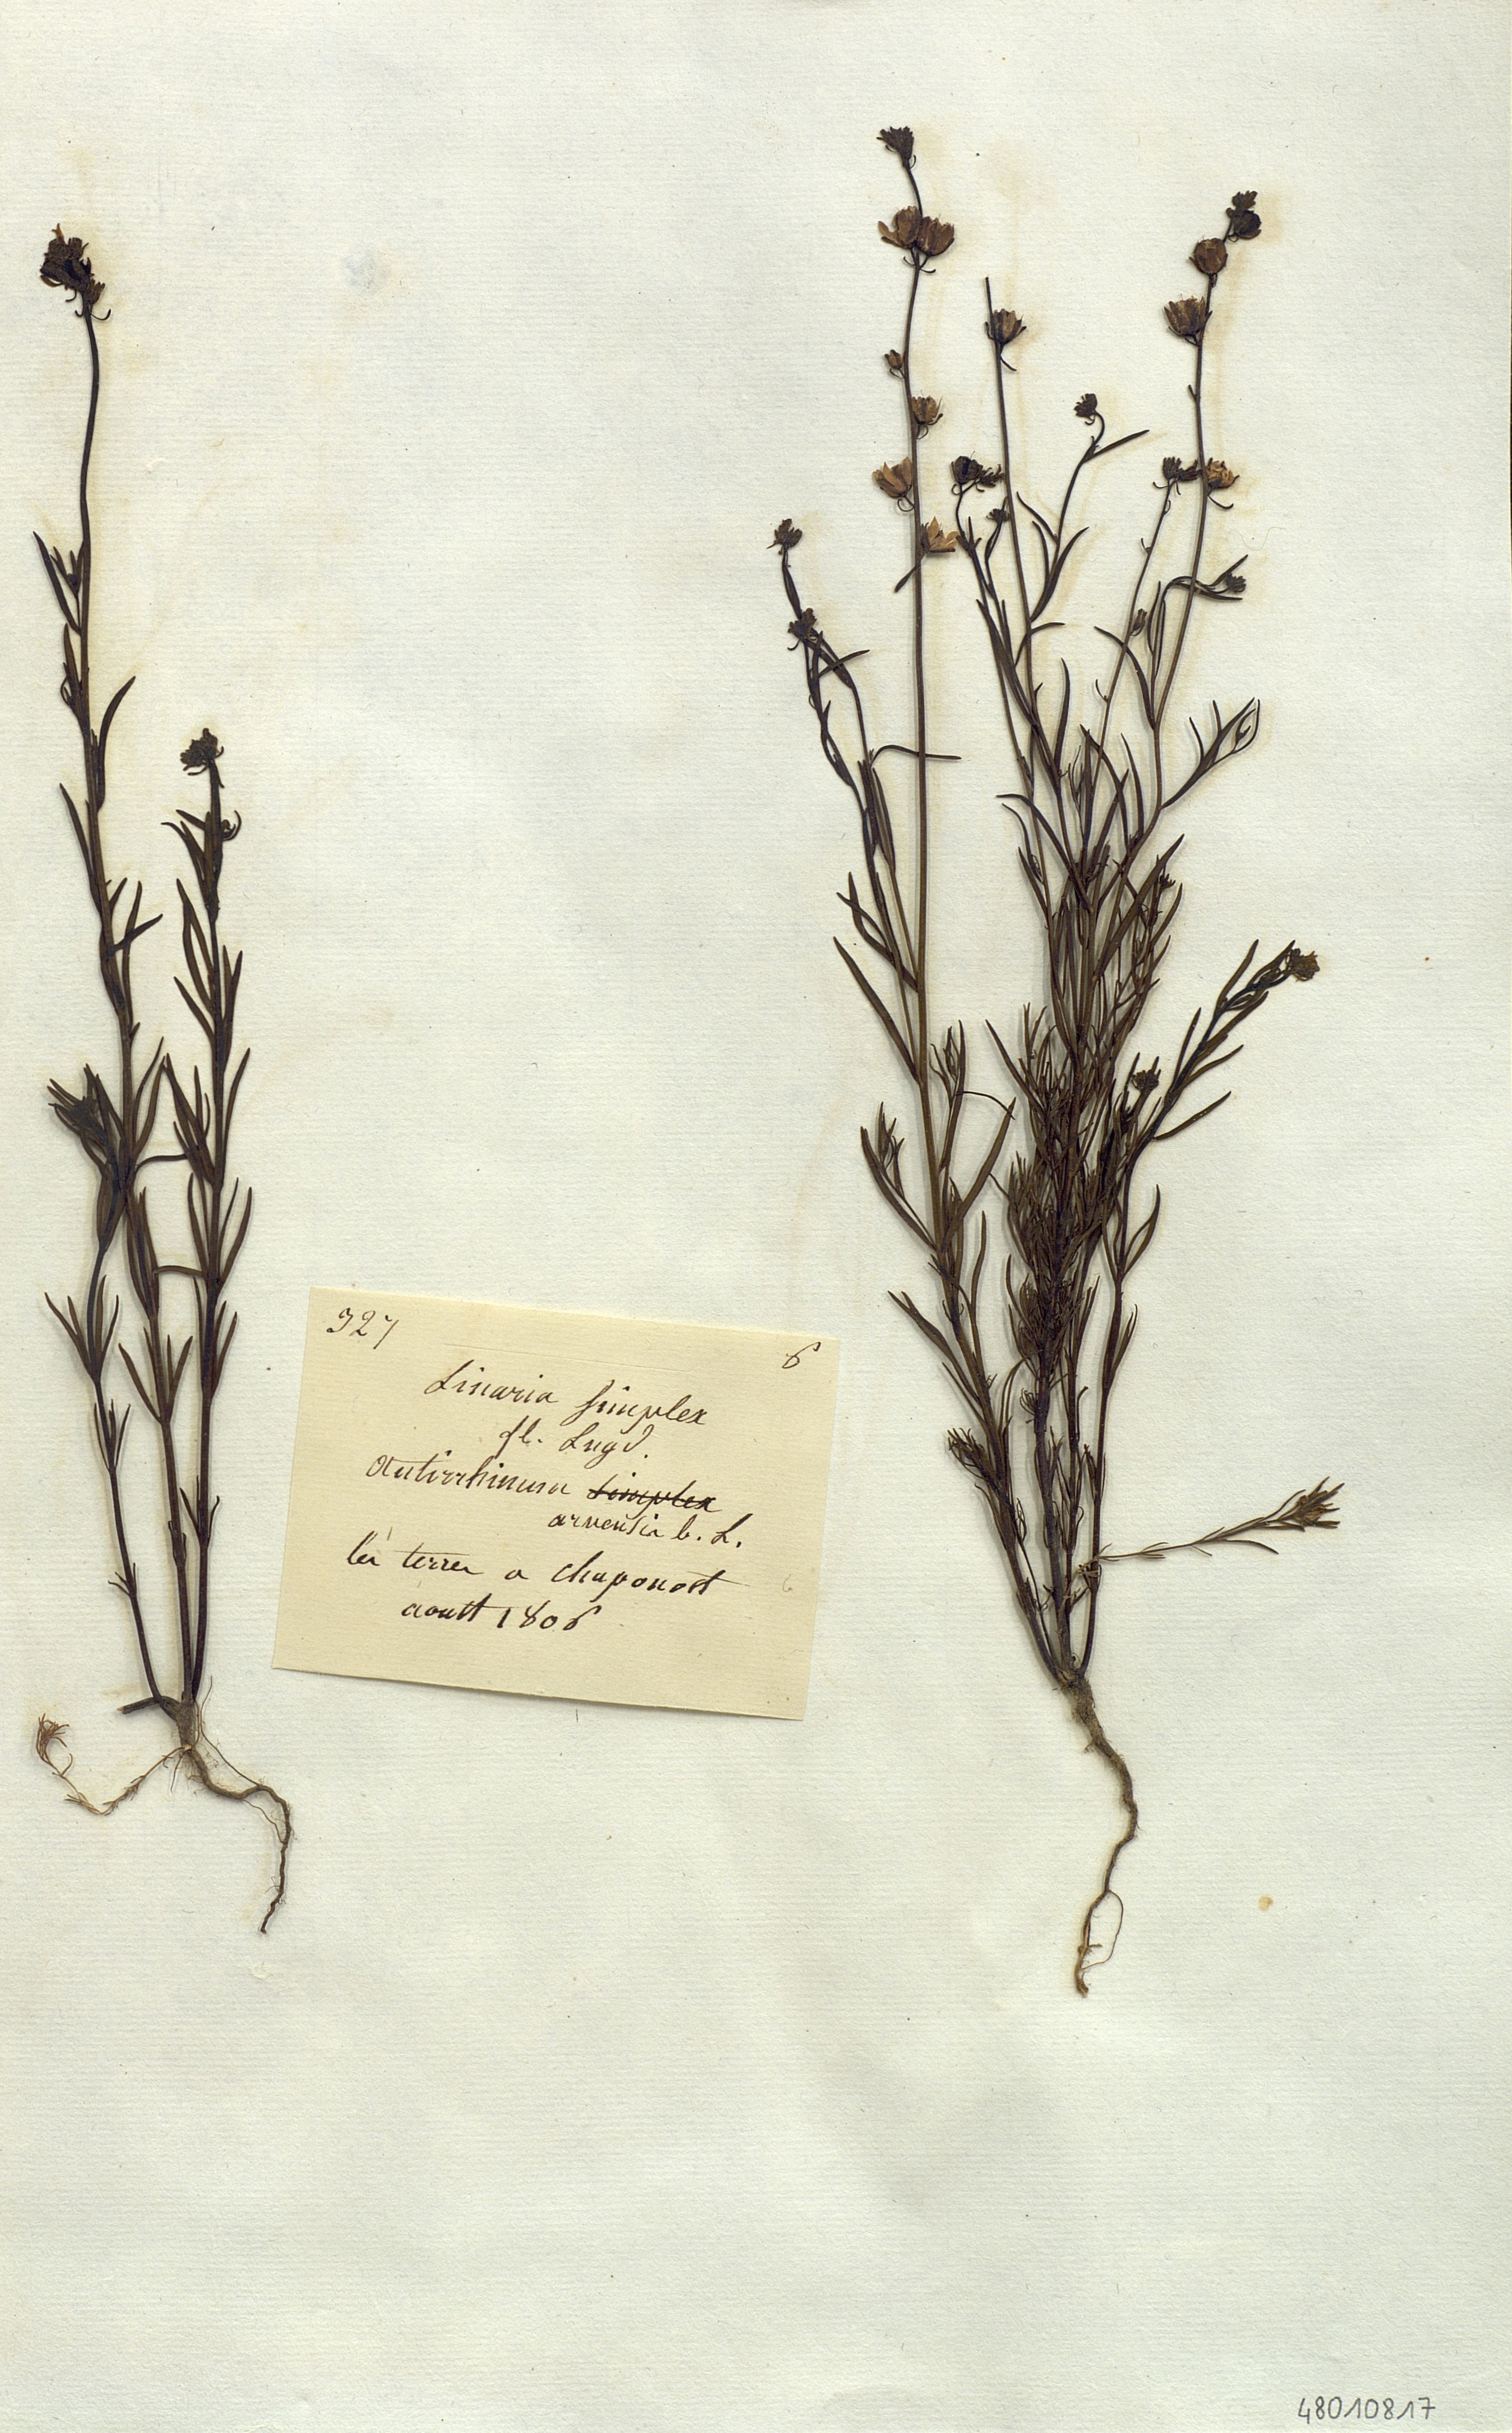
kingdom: Plantae
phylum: Tracheophyta
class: Magnoliopsida
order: Lamiales
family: Plantaginaceae
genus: Linaria
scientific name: Linaria simplex
